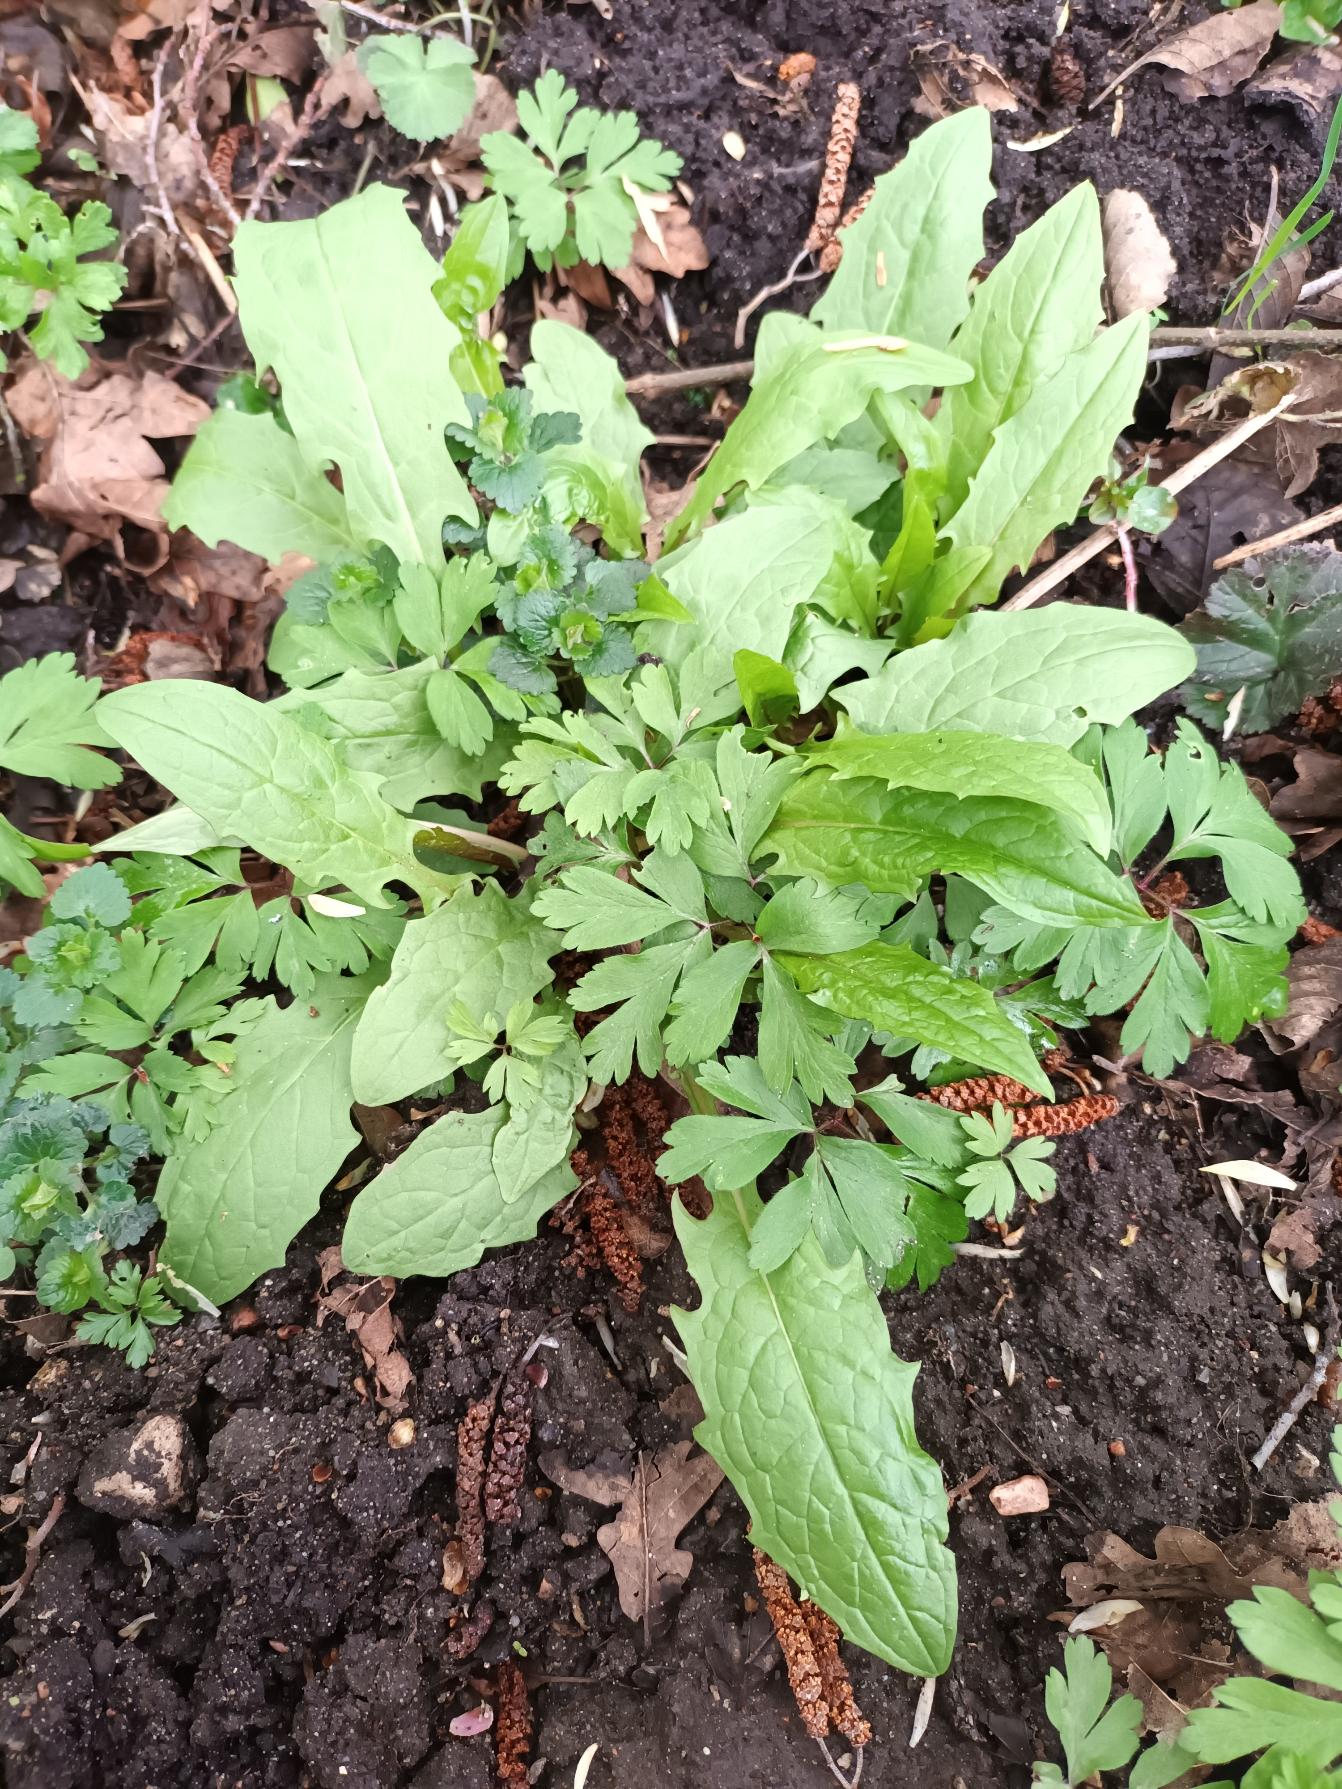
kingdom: Plantae
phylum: Tracheophyta
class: Magnoliopsida
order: Asterales
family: Asteraceae
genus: Crepis
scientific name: Crepis paludosa
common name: Kær-høgeskæg
